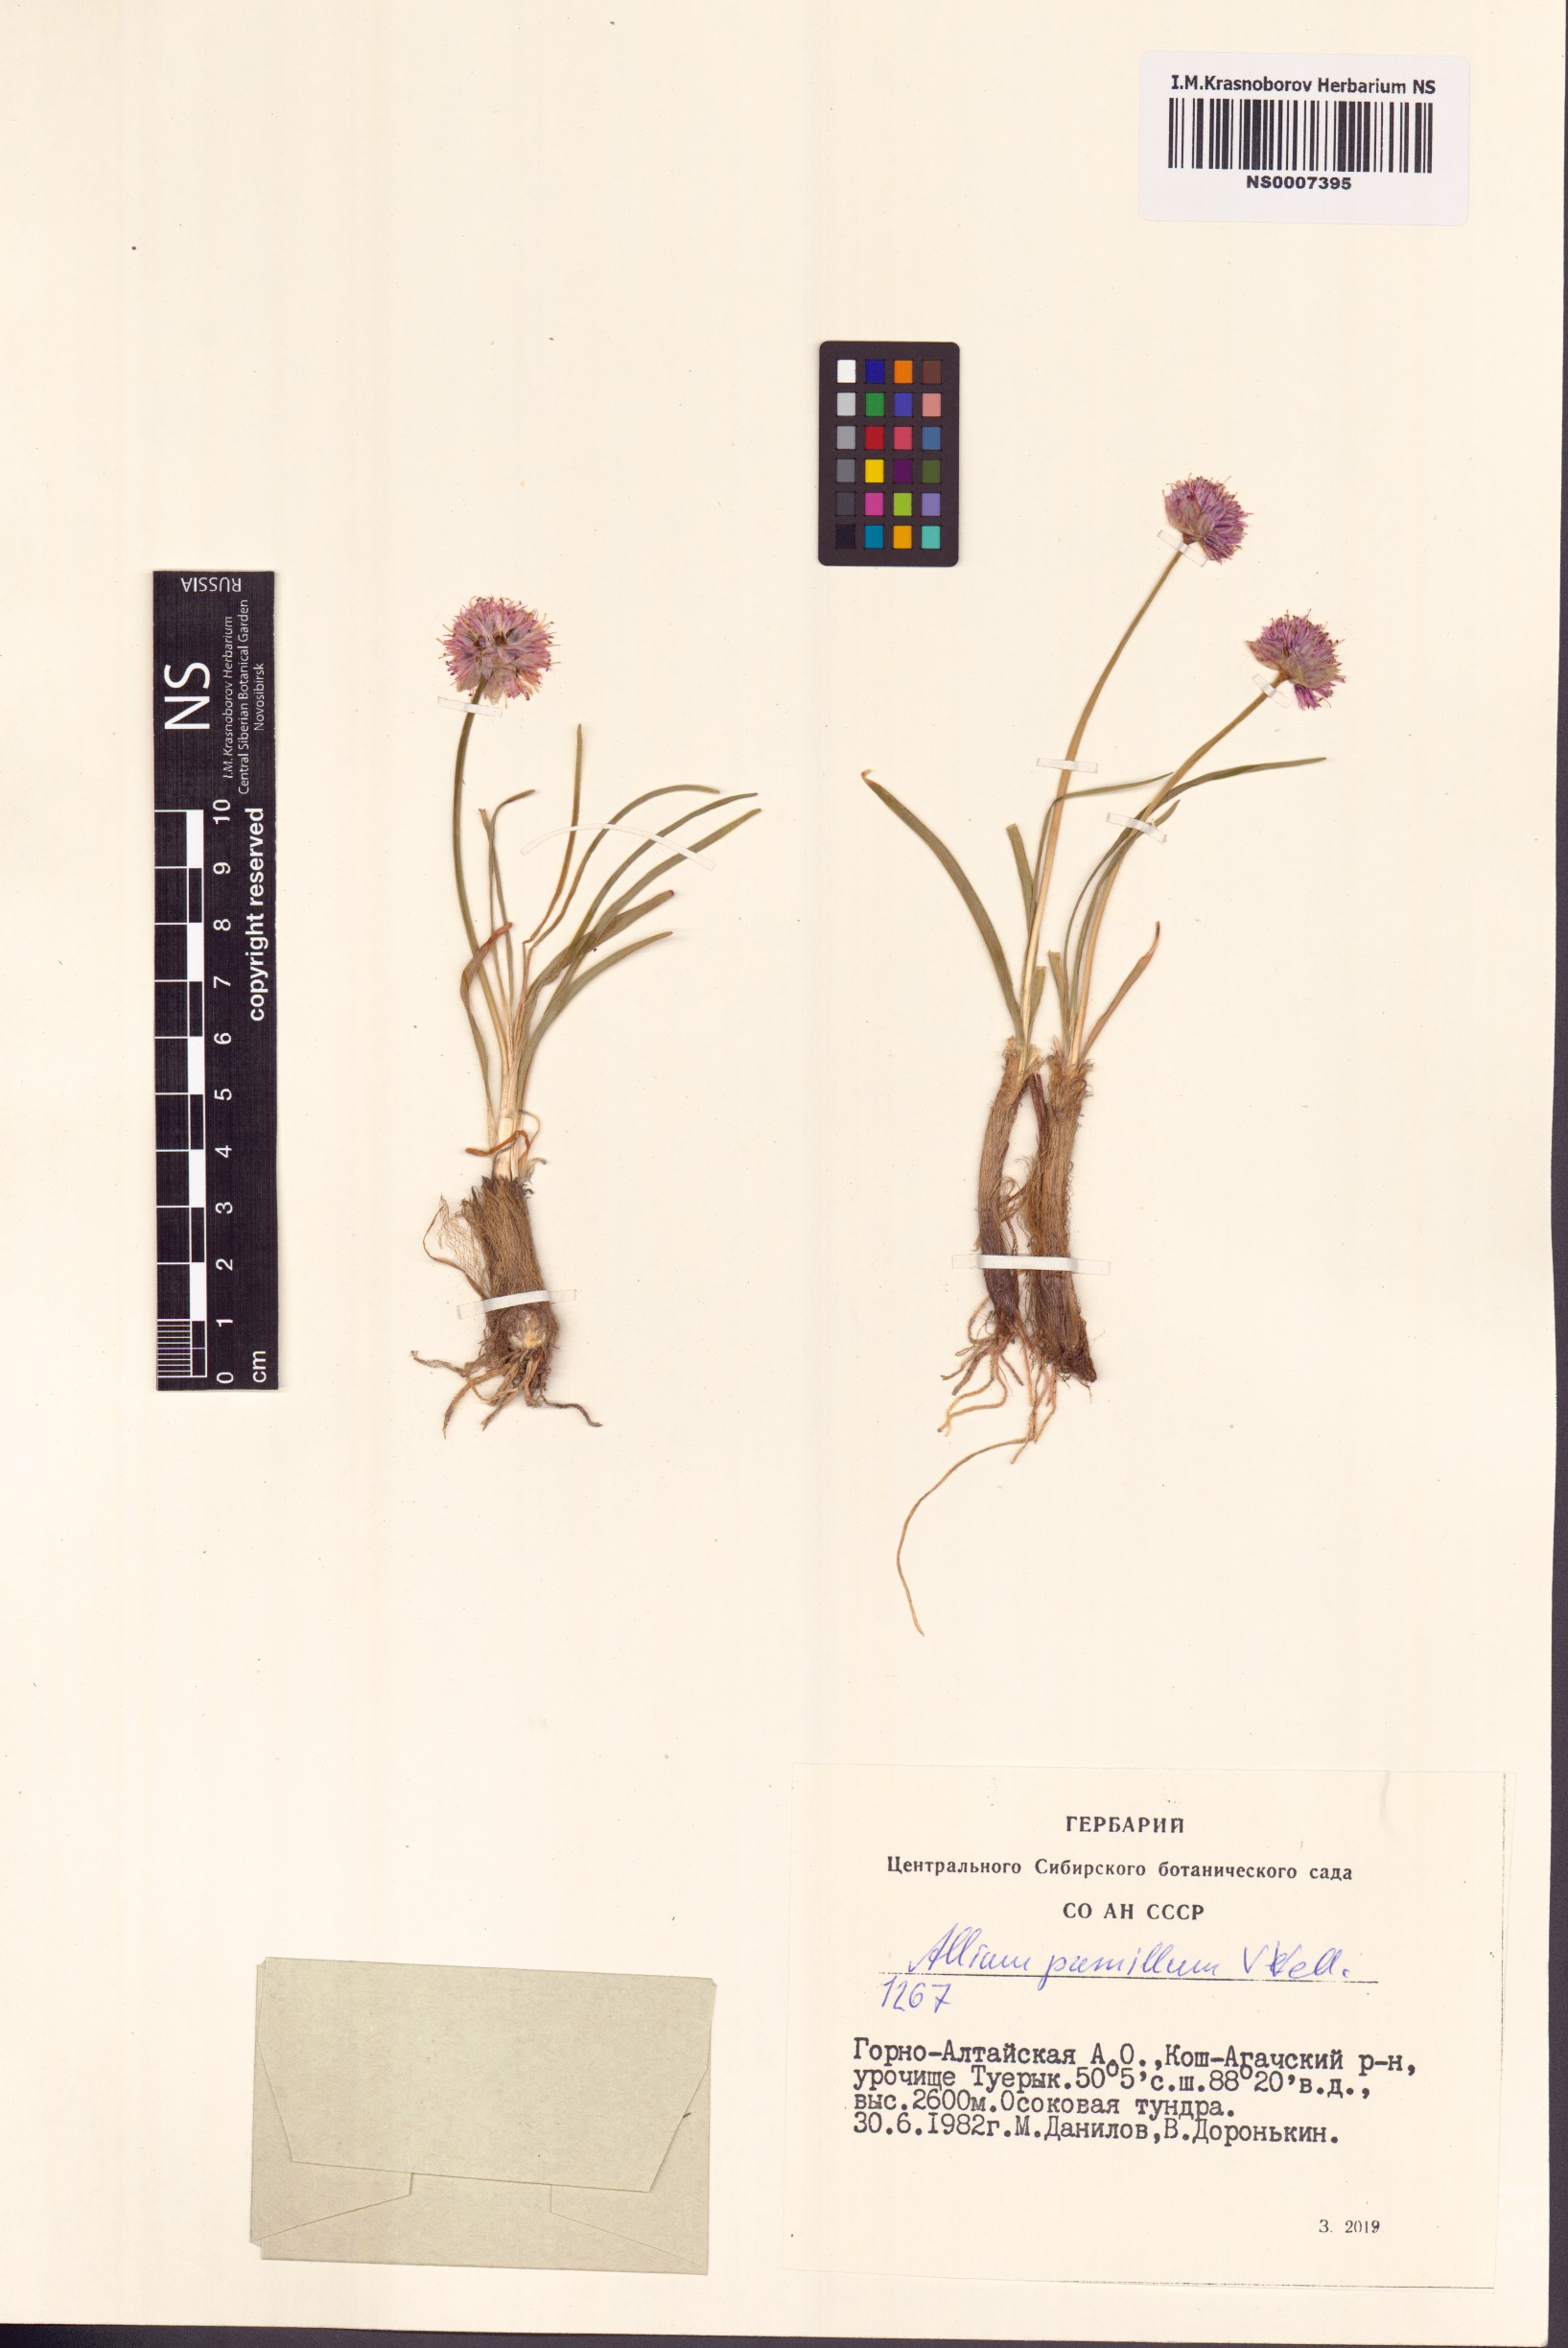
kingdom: Plantae
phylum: Tracheophyta
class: Liliopsida
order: Asparagales
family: Amaryllidaceae
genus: Allium
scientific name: Allium pumilum
